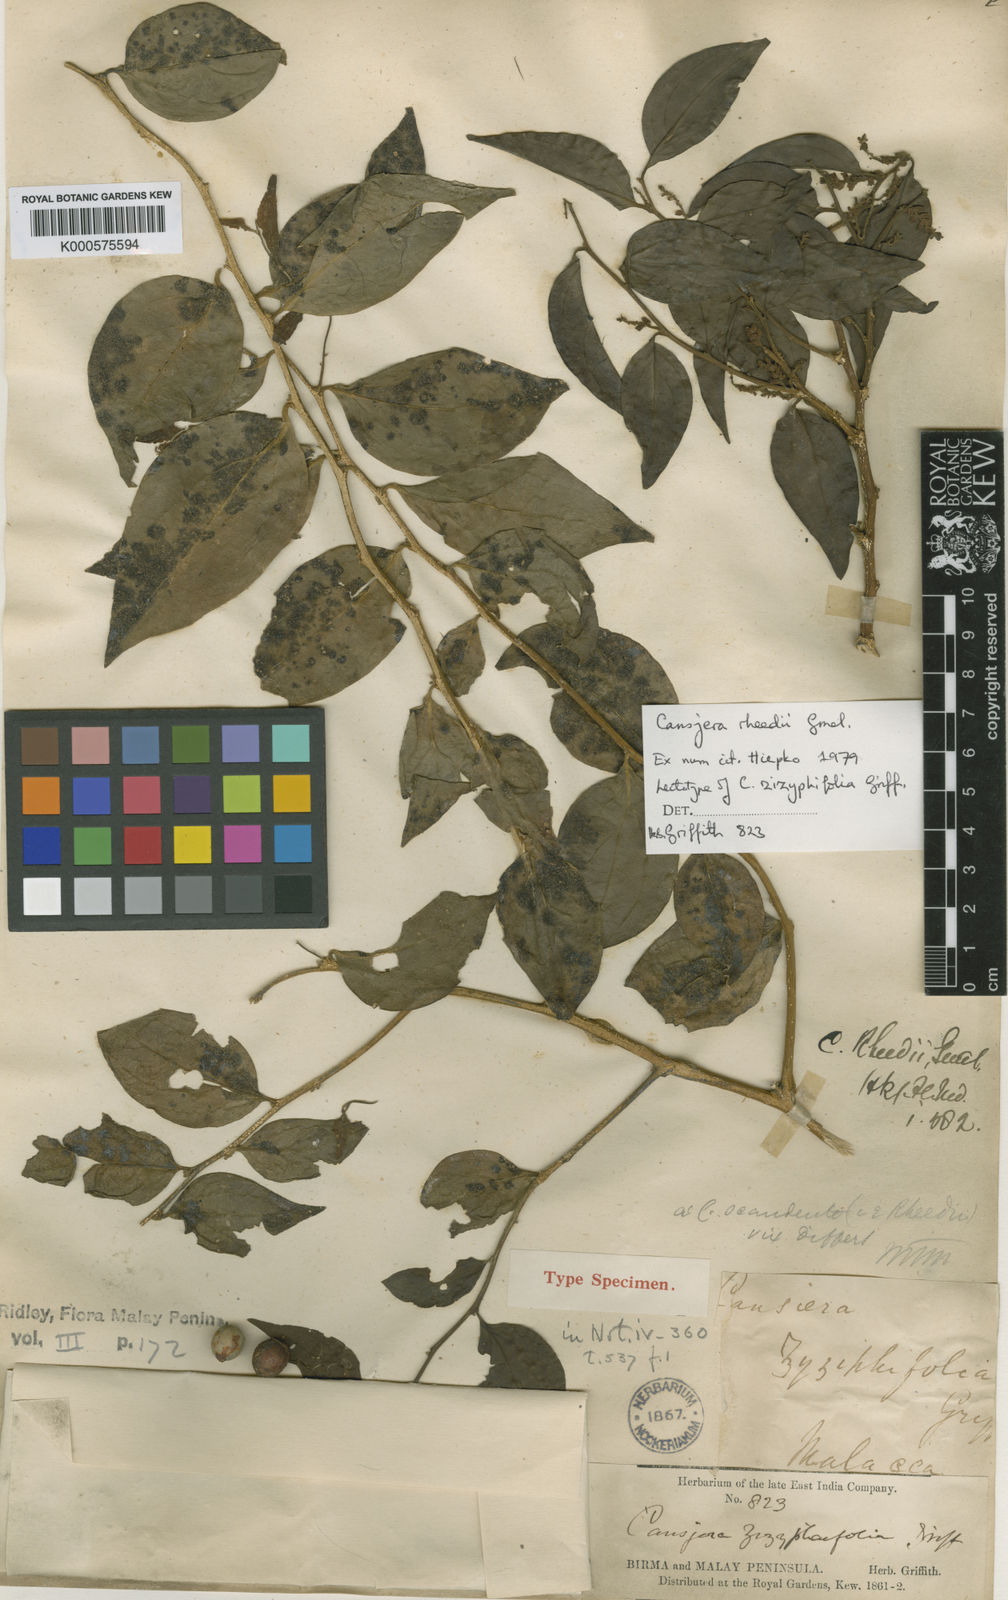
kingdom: Plantae
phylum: Tracheophyta
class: Magnoliopsida
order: Santalales
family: Opiliaceae
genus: Cansjera
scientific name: Cansjera rheedei
